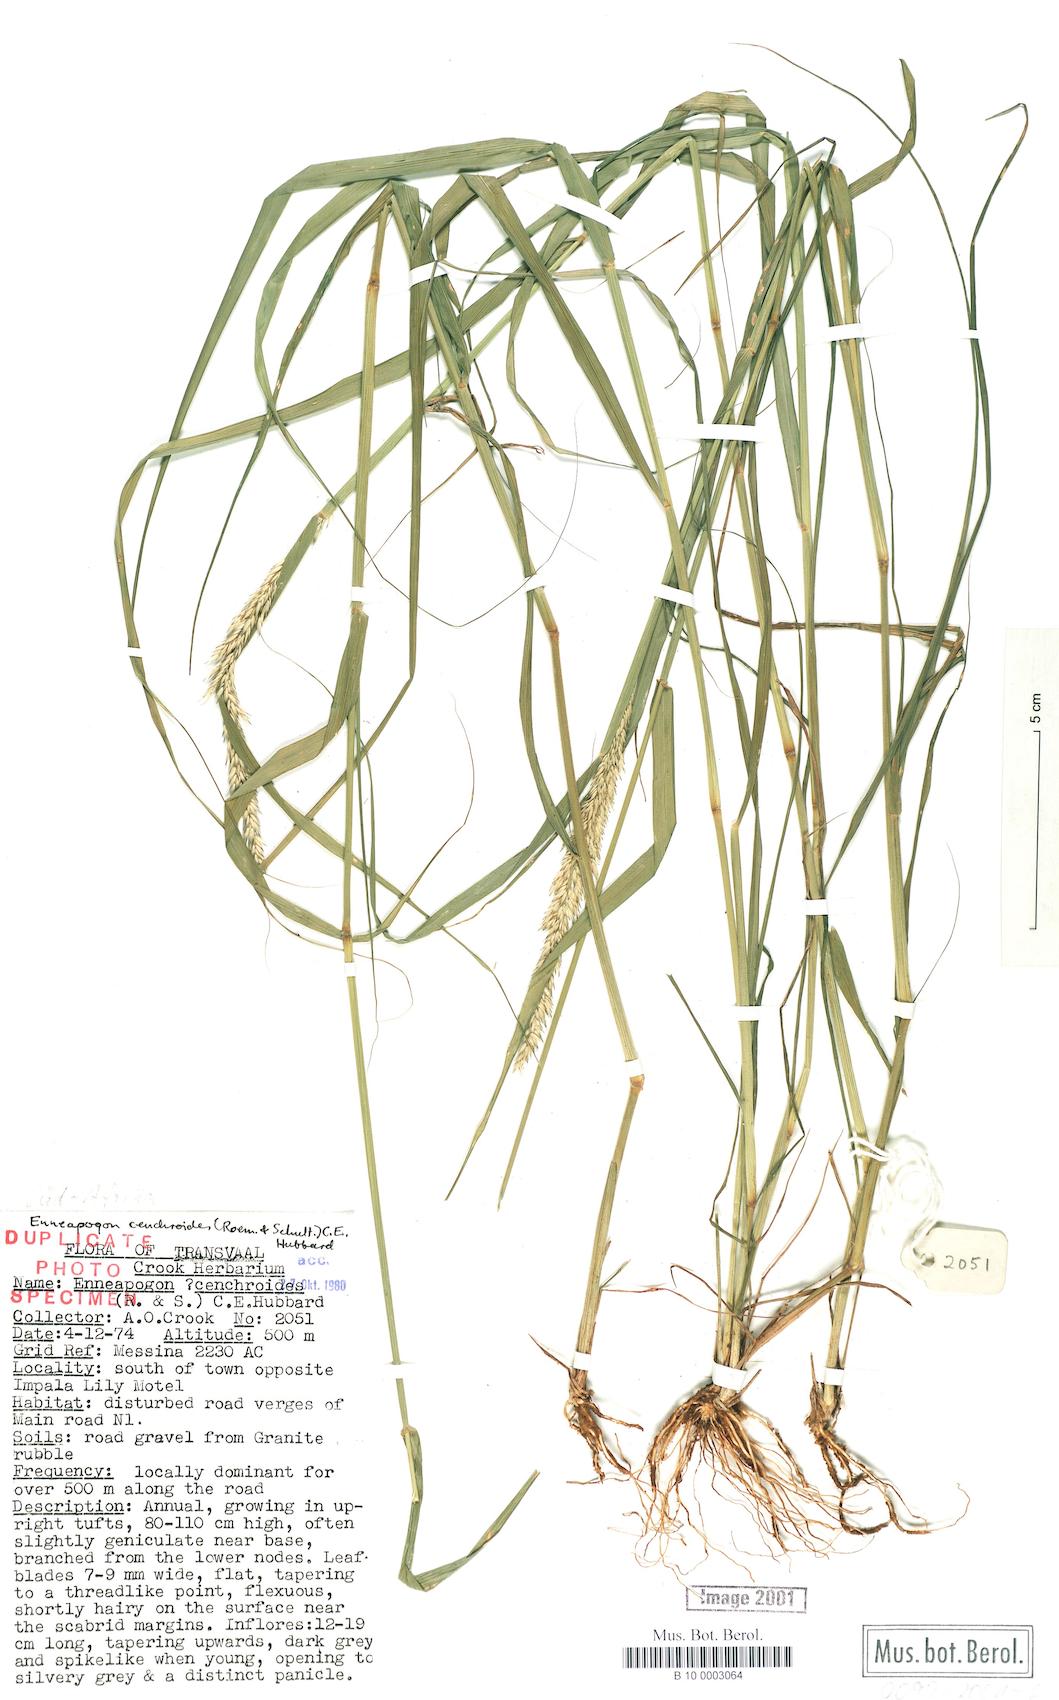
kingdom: Plantae
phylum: Tracheophyta
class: Liliopsida
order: Poales
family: Poaceae
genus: Enneapogon
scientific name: Enneapogon cenchroides
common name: Soft feather pappusgrass
